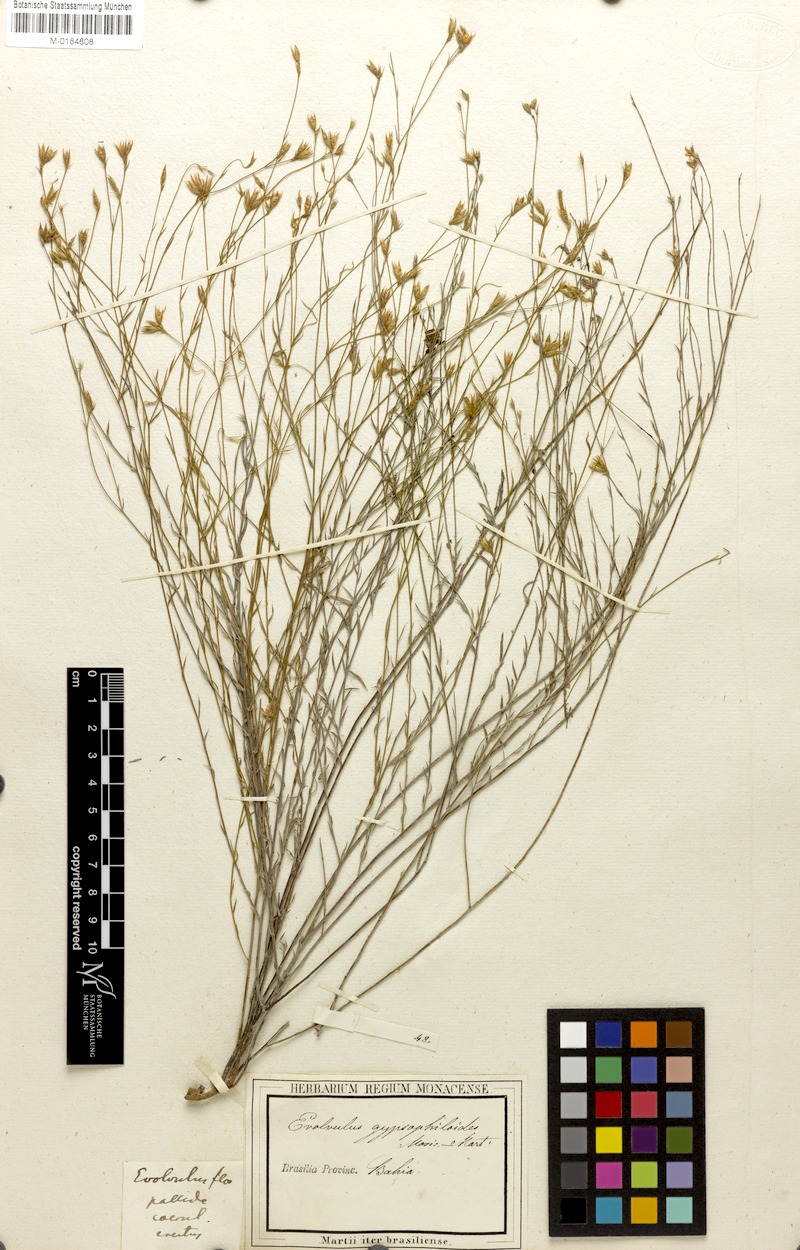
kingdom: Plantae
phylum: Tracheophyta
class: Magnoliopsida
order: Solanales
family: Convolvulaceae
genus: Evolvulus
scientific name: Evolvulus gypsophiloides
